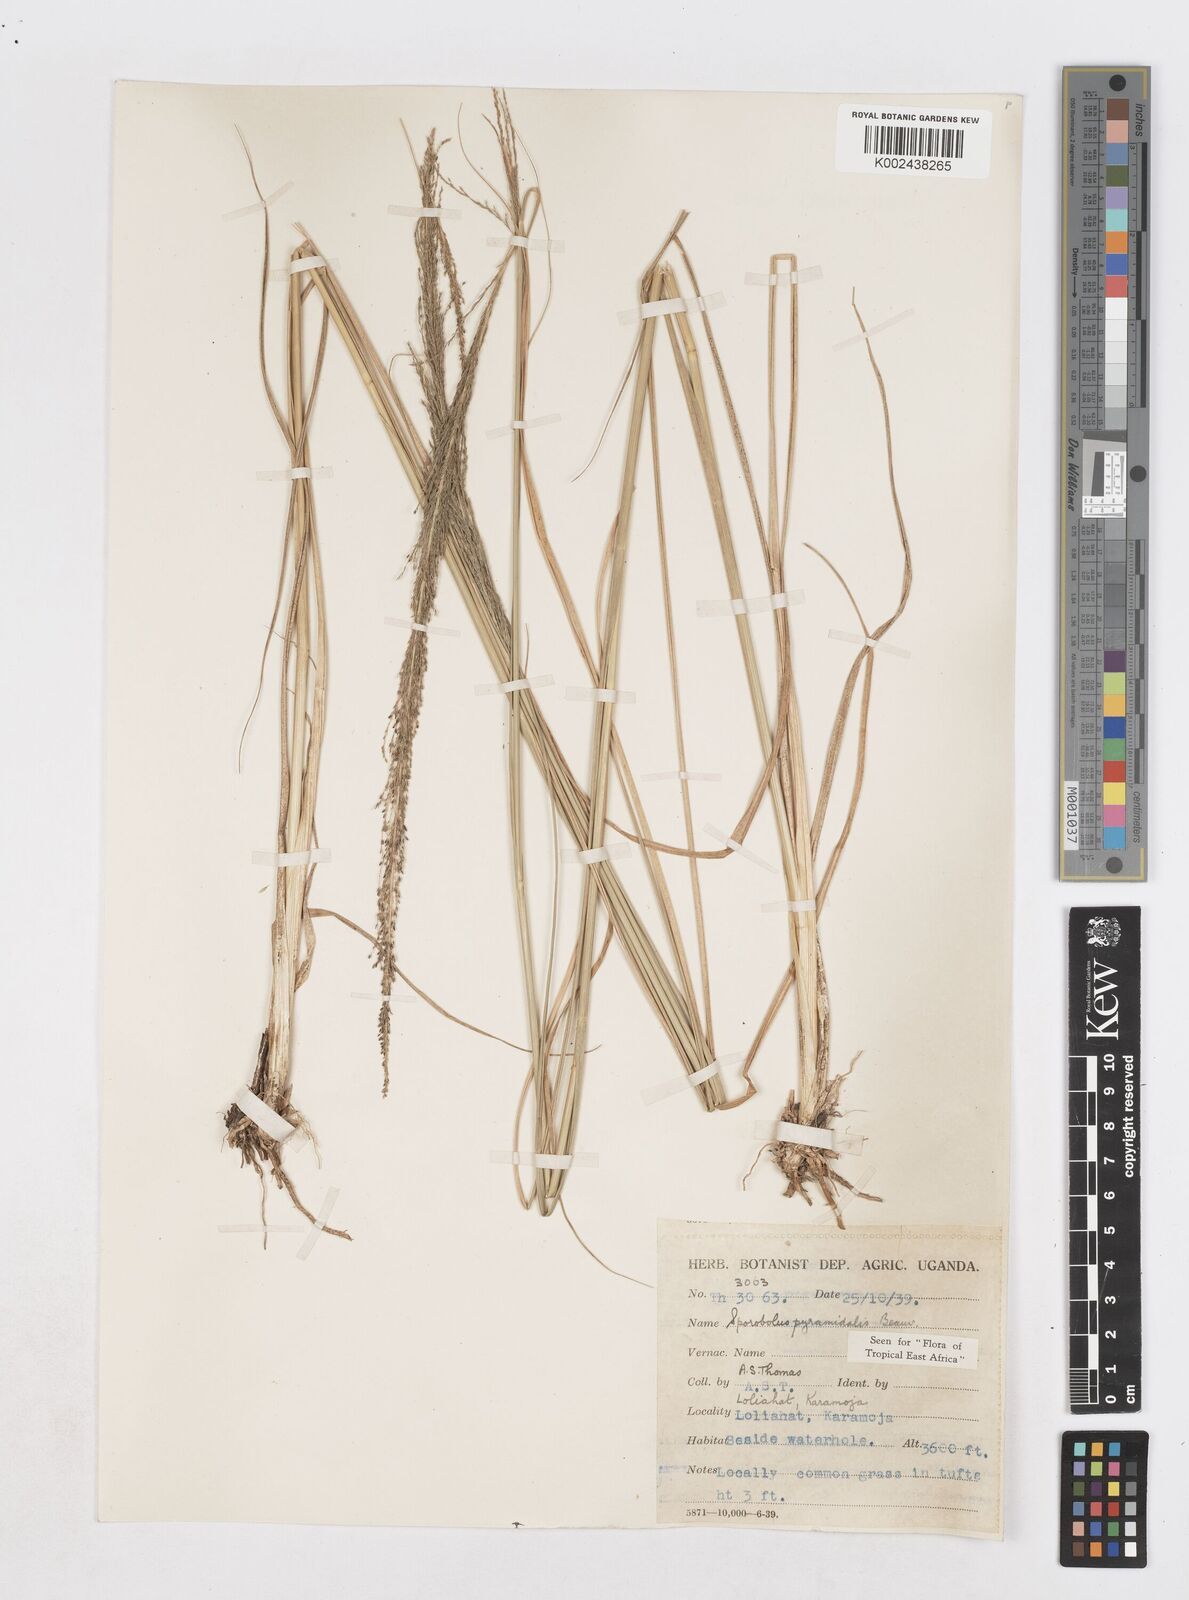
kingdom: Plantae
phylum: Tracheophyta
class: Liliopsida
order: Poales
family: Poaceae
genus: Sporobolus
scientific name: Sporobolus pyramidalis
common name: West indian dropseed
